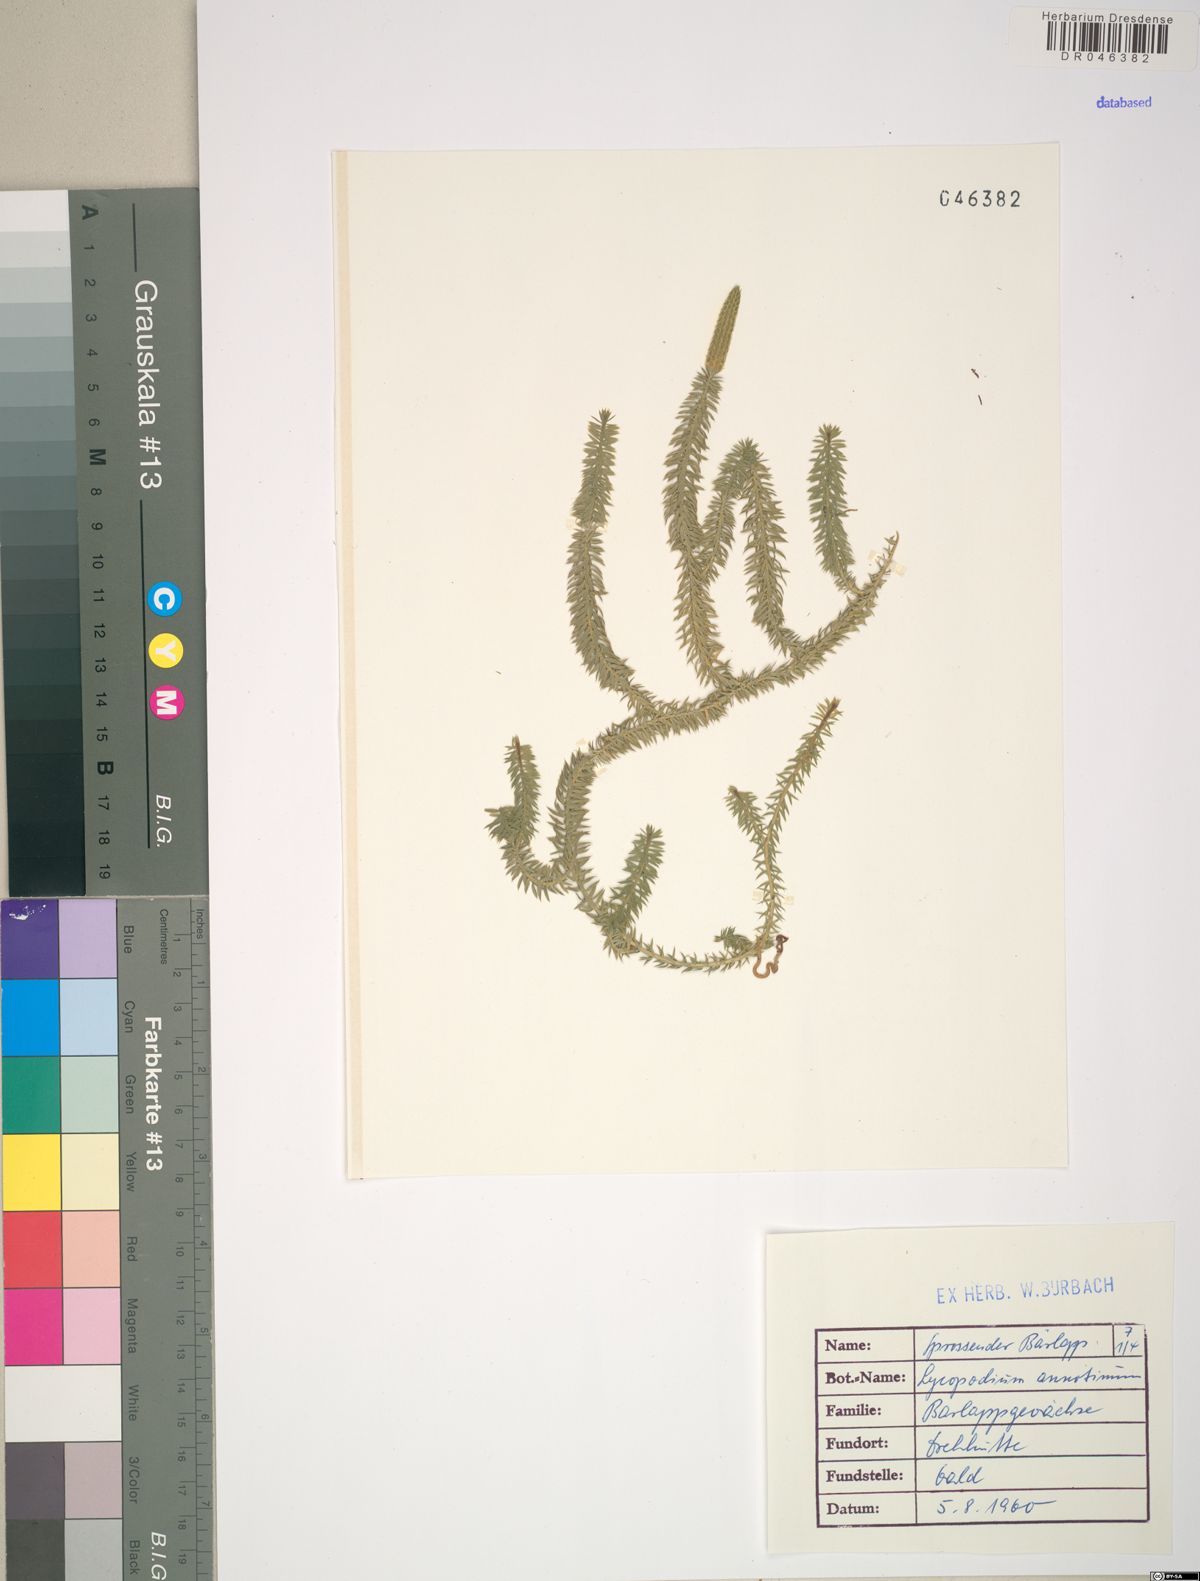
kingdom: Plantae
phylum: Tracheophyta
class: Lycopodiopsida
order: Lycopodiales
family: Lycopodiaceae
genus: Spinulum
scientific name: Spinulum annotinum
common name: Interrupted club-moss
